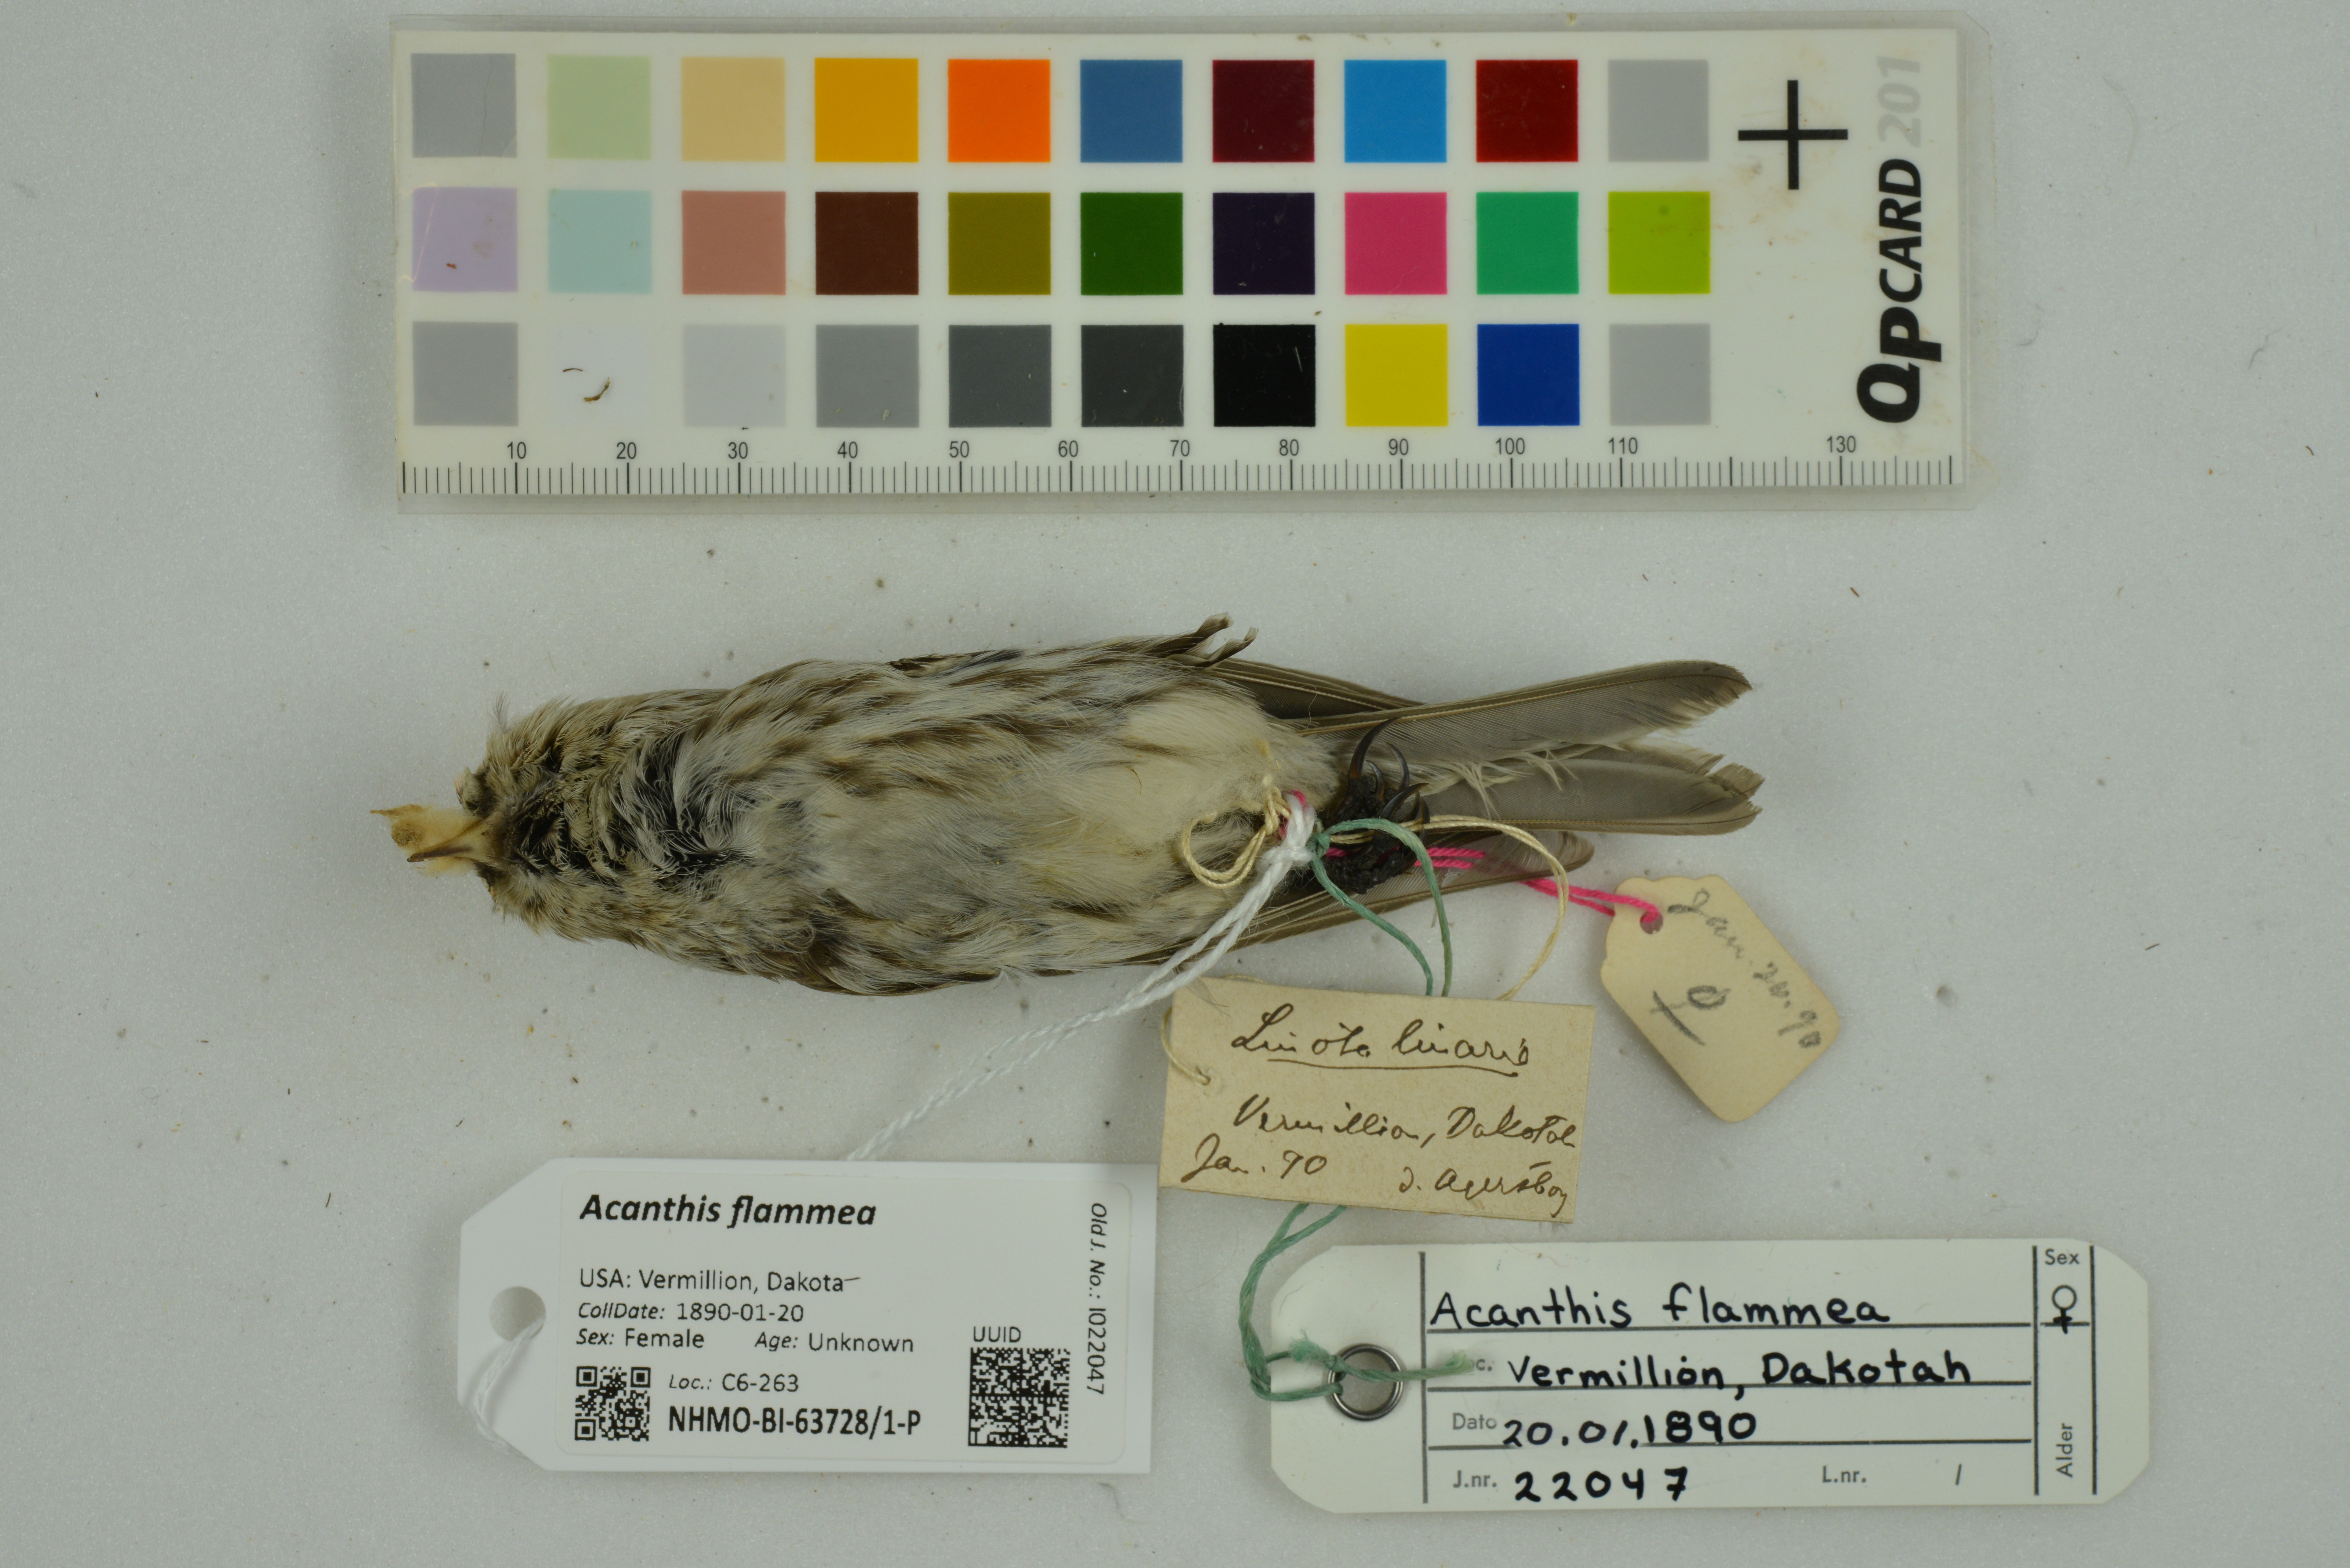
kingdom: Animalia
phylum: Chordata
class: Aves
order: Passeriformes
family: Fringillidae
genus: Acanthis
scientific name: Acanthis flammea
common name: Common redpoll
